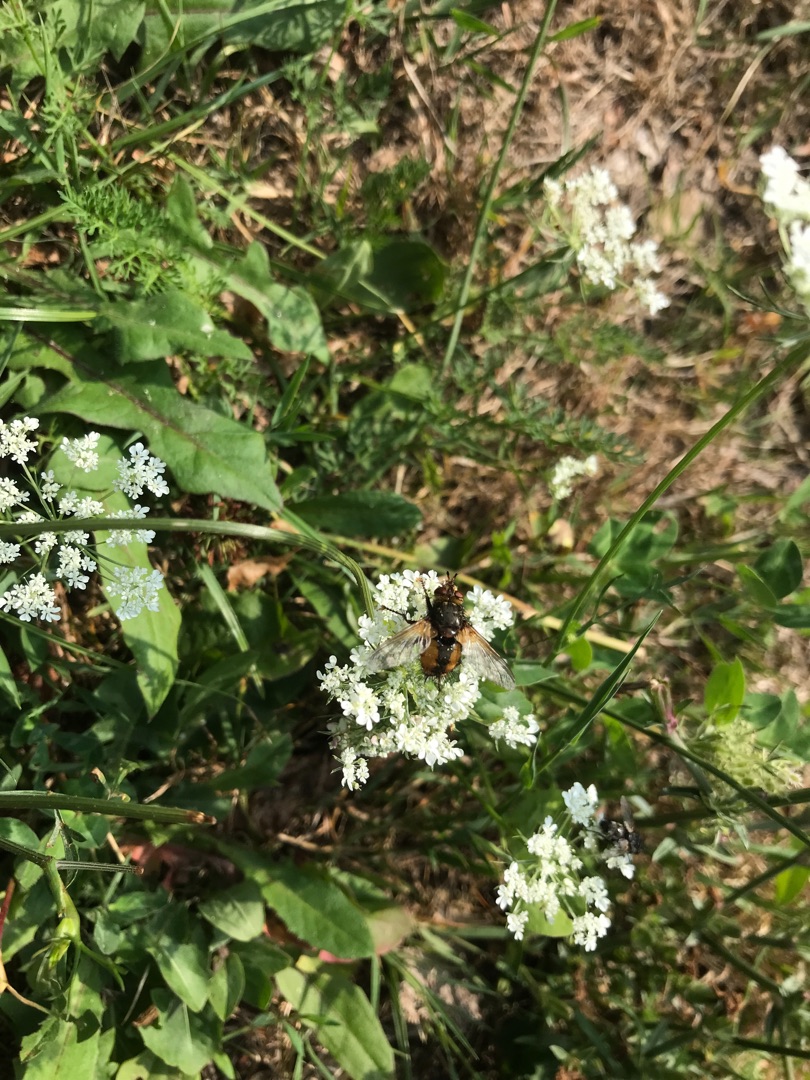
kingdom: Animalia
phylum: Arthropoda
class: Insecta
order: Diptera
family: Tachinidae
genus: Tachina
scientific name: Tachina fera
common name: Mellemfluen oskar
